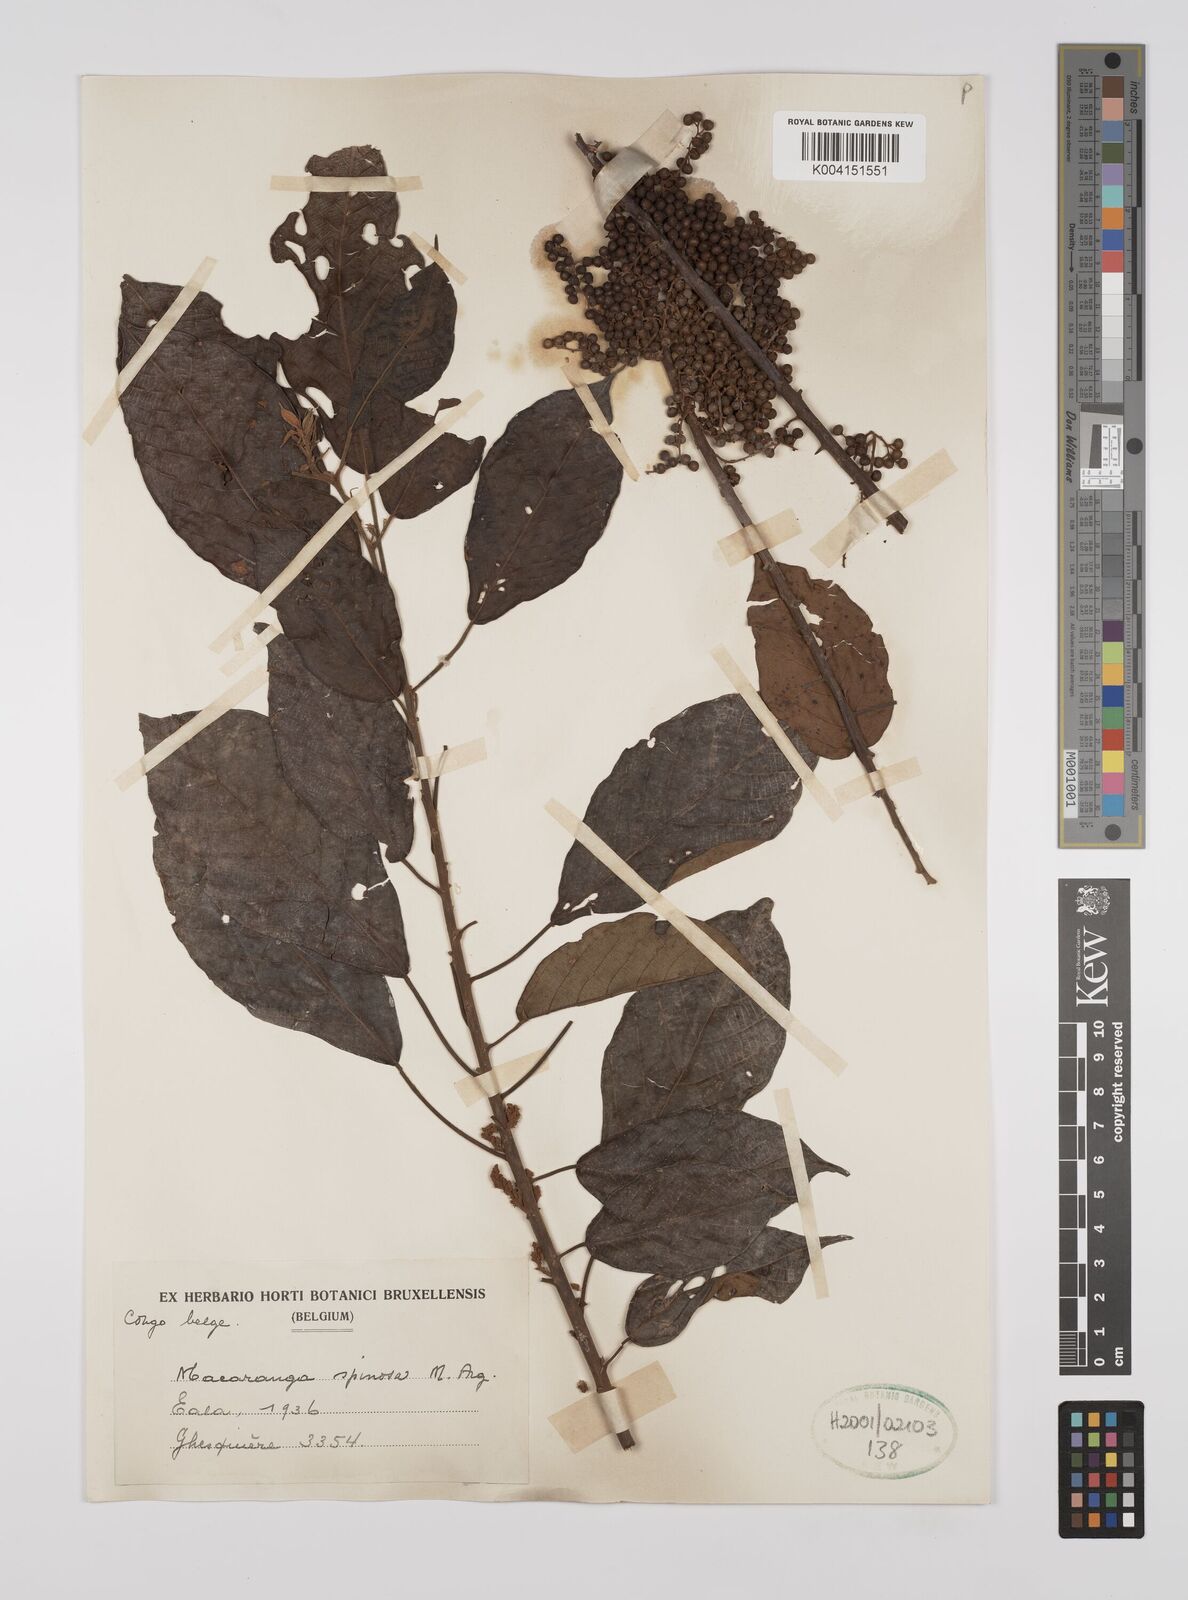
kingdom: Plantae
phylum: Tracheophyta
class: Magnoliopsida
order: Malpighiales
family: Euphorbiaceae
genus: Macaranga
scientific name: Macaranga spinosa
